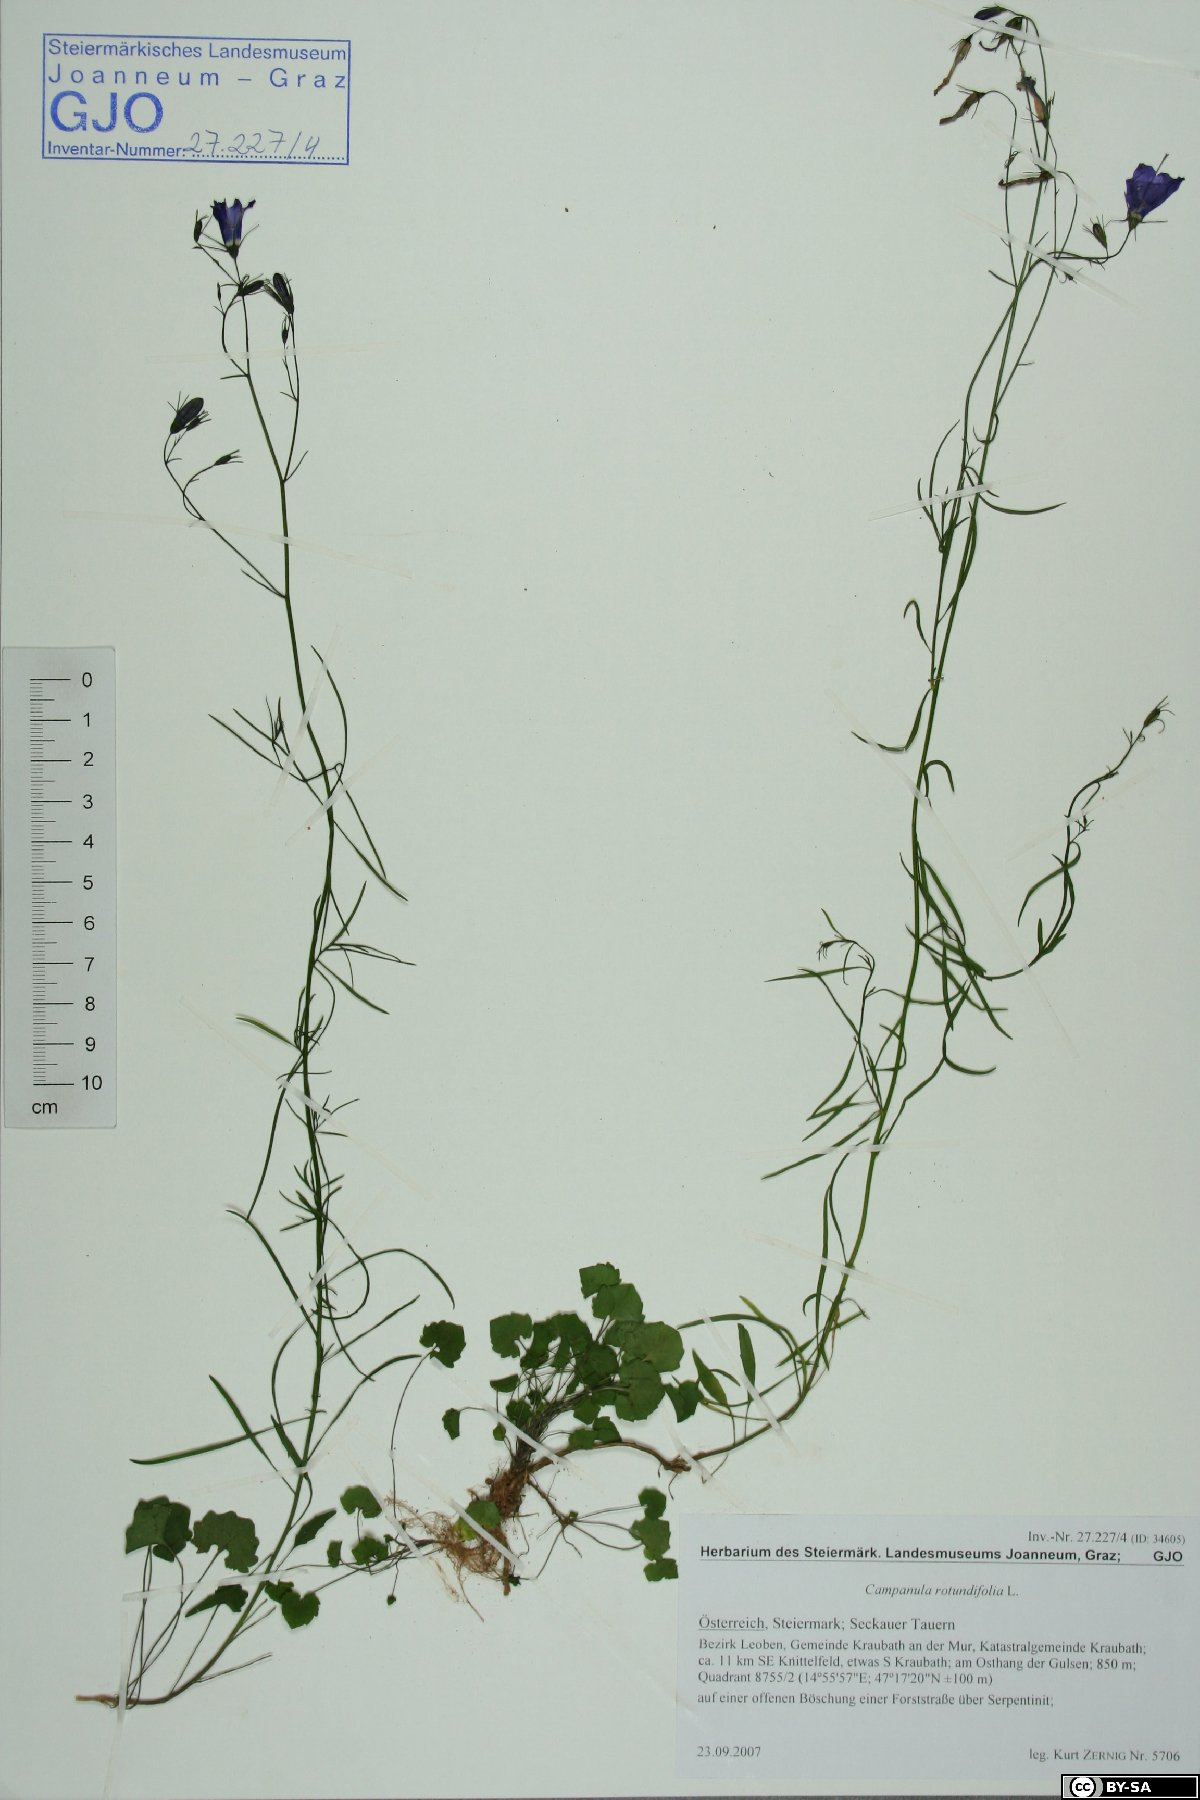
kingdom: Plantae
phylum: Tracheophyta
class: Magnoliopsida
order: Asterales
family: Campanulaceae
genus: Campanula
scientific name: Campanula rotundifolia
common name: Harebell
